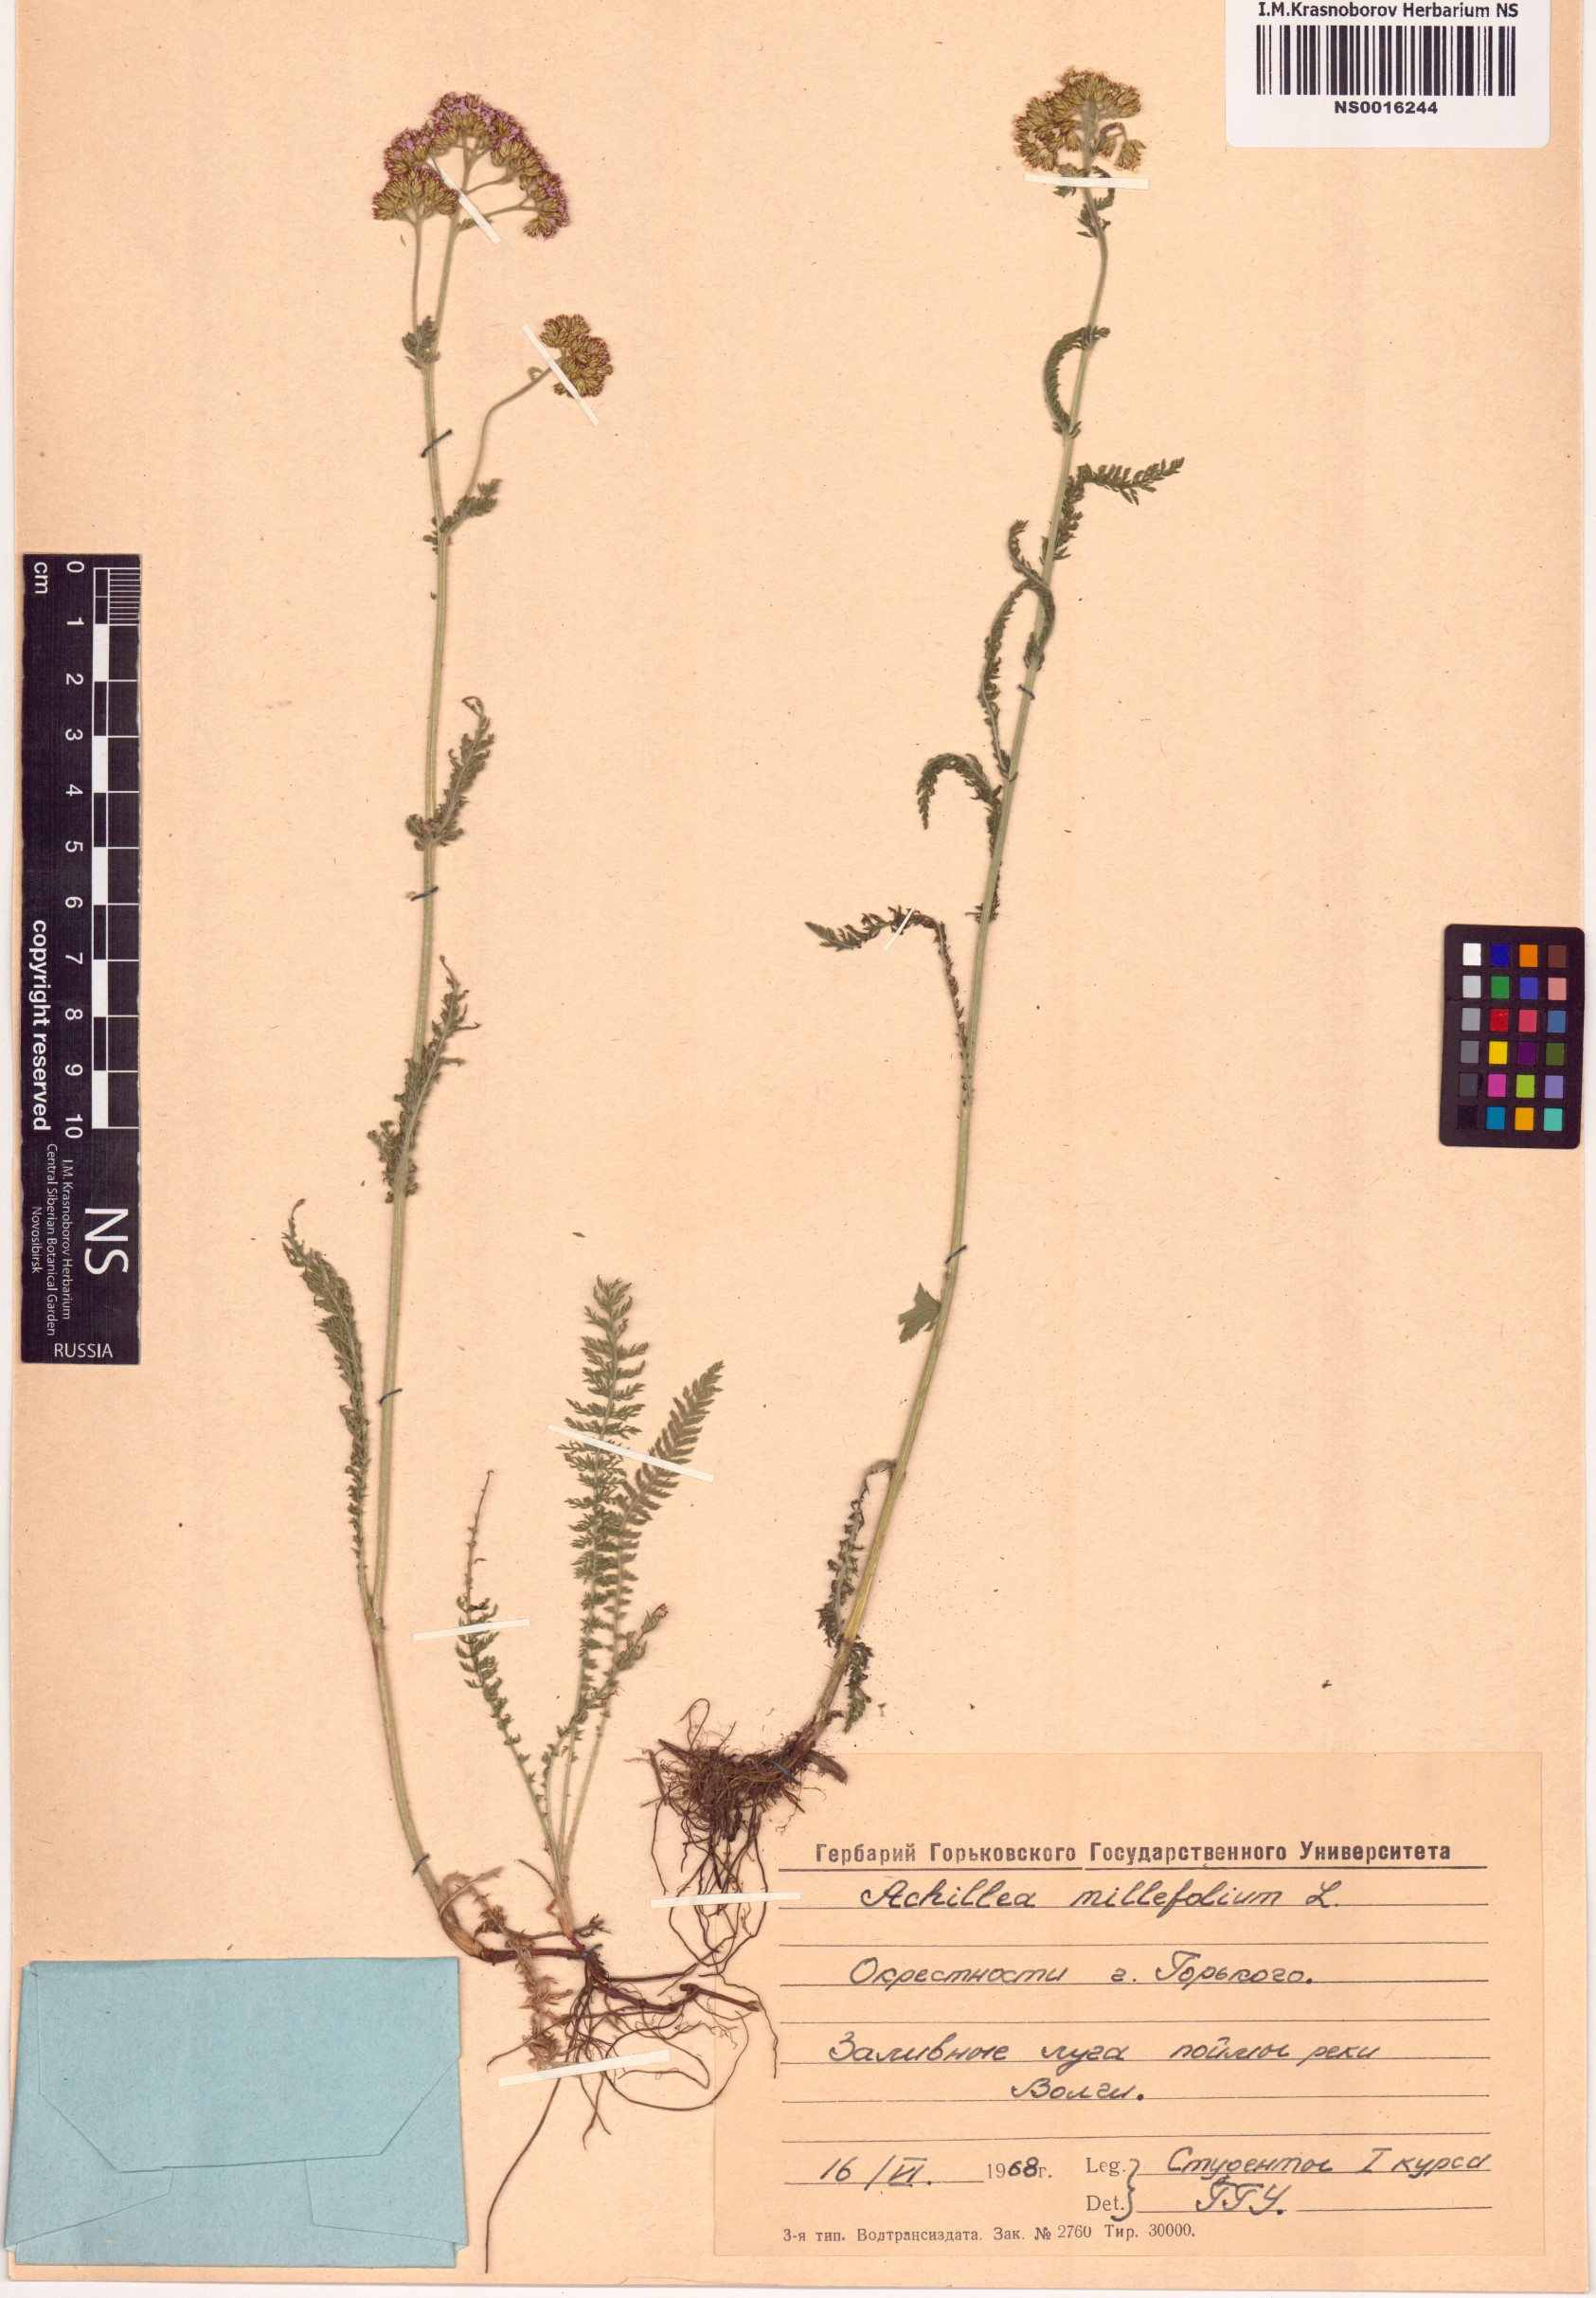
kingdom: Plantae
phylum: Tracheophyta
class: Magnoliopsida
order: Asterales
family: Asteraceae
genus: Achillea
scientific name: Achillea millefolium
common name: Yarrow
